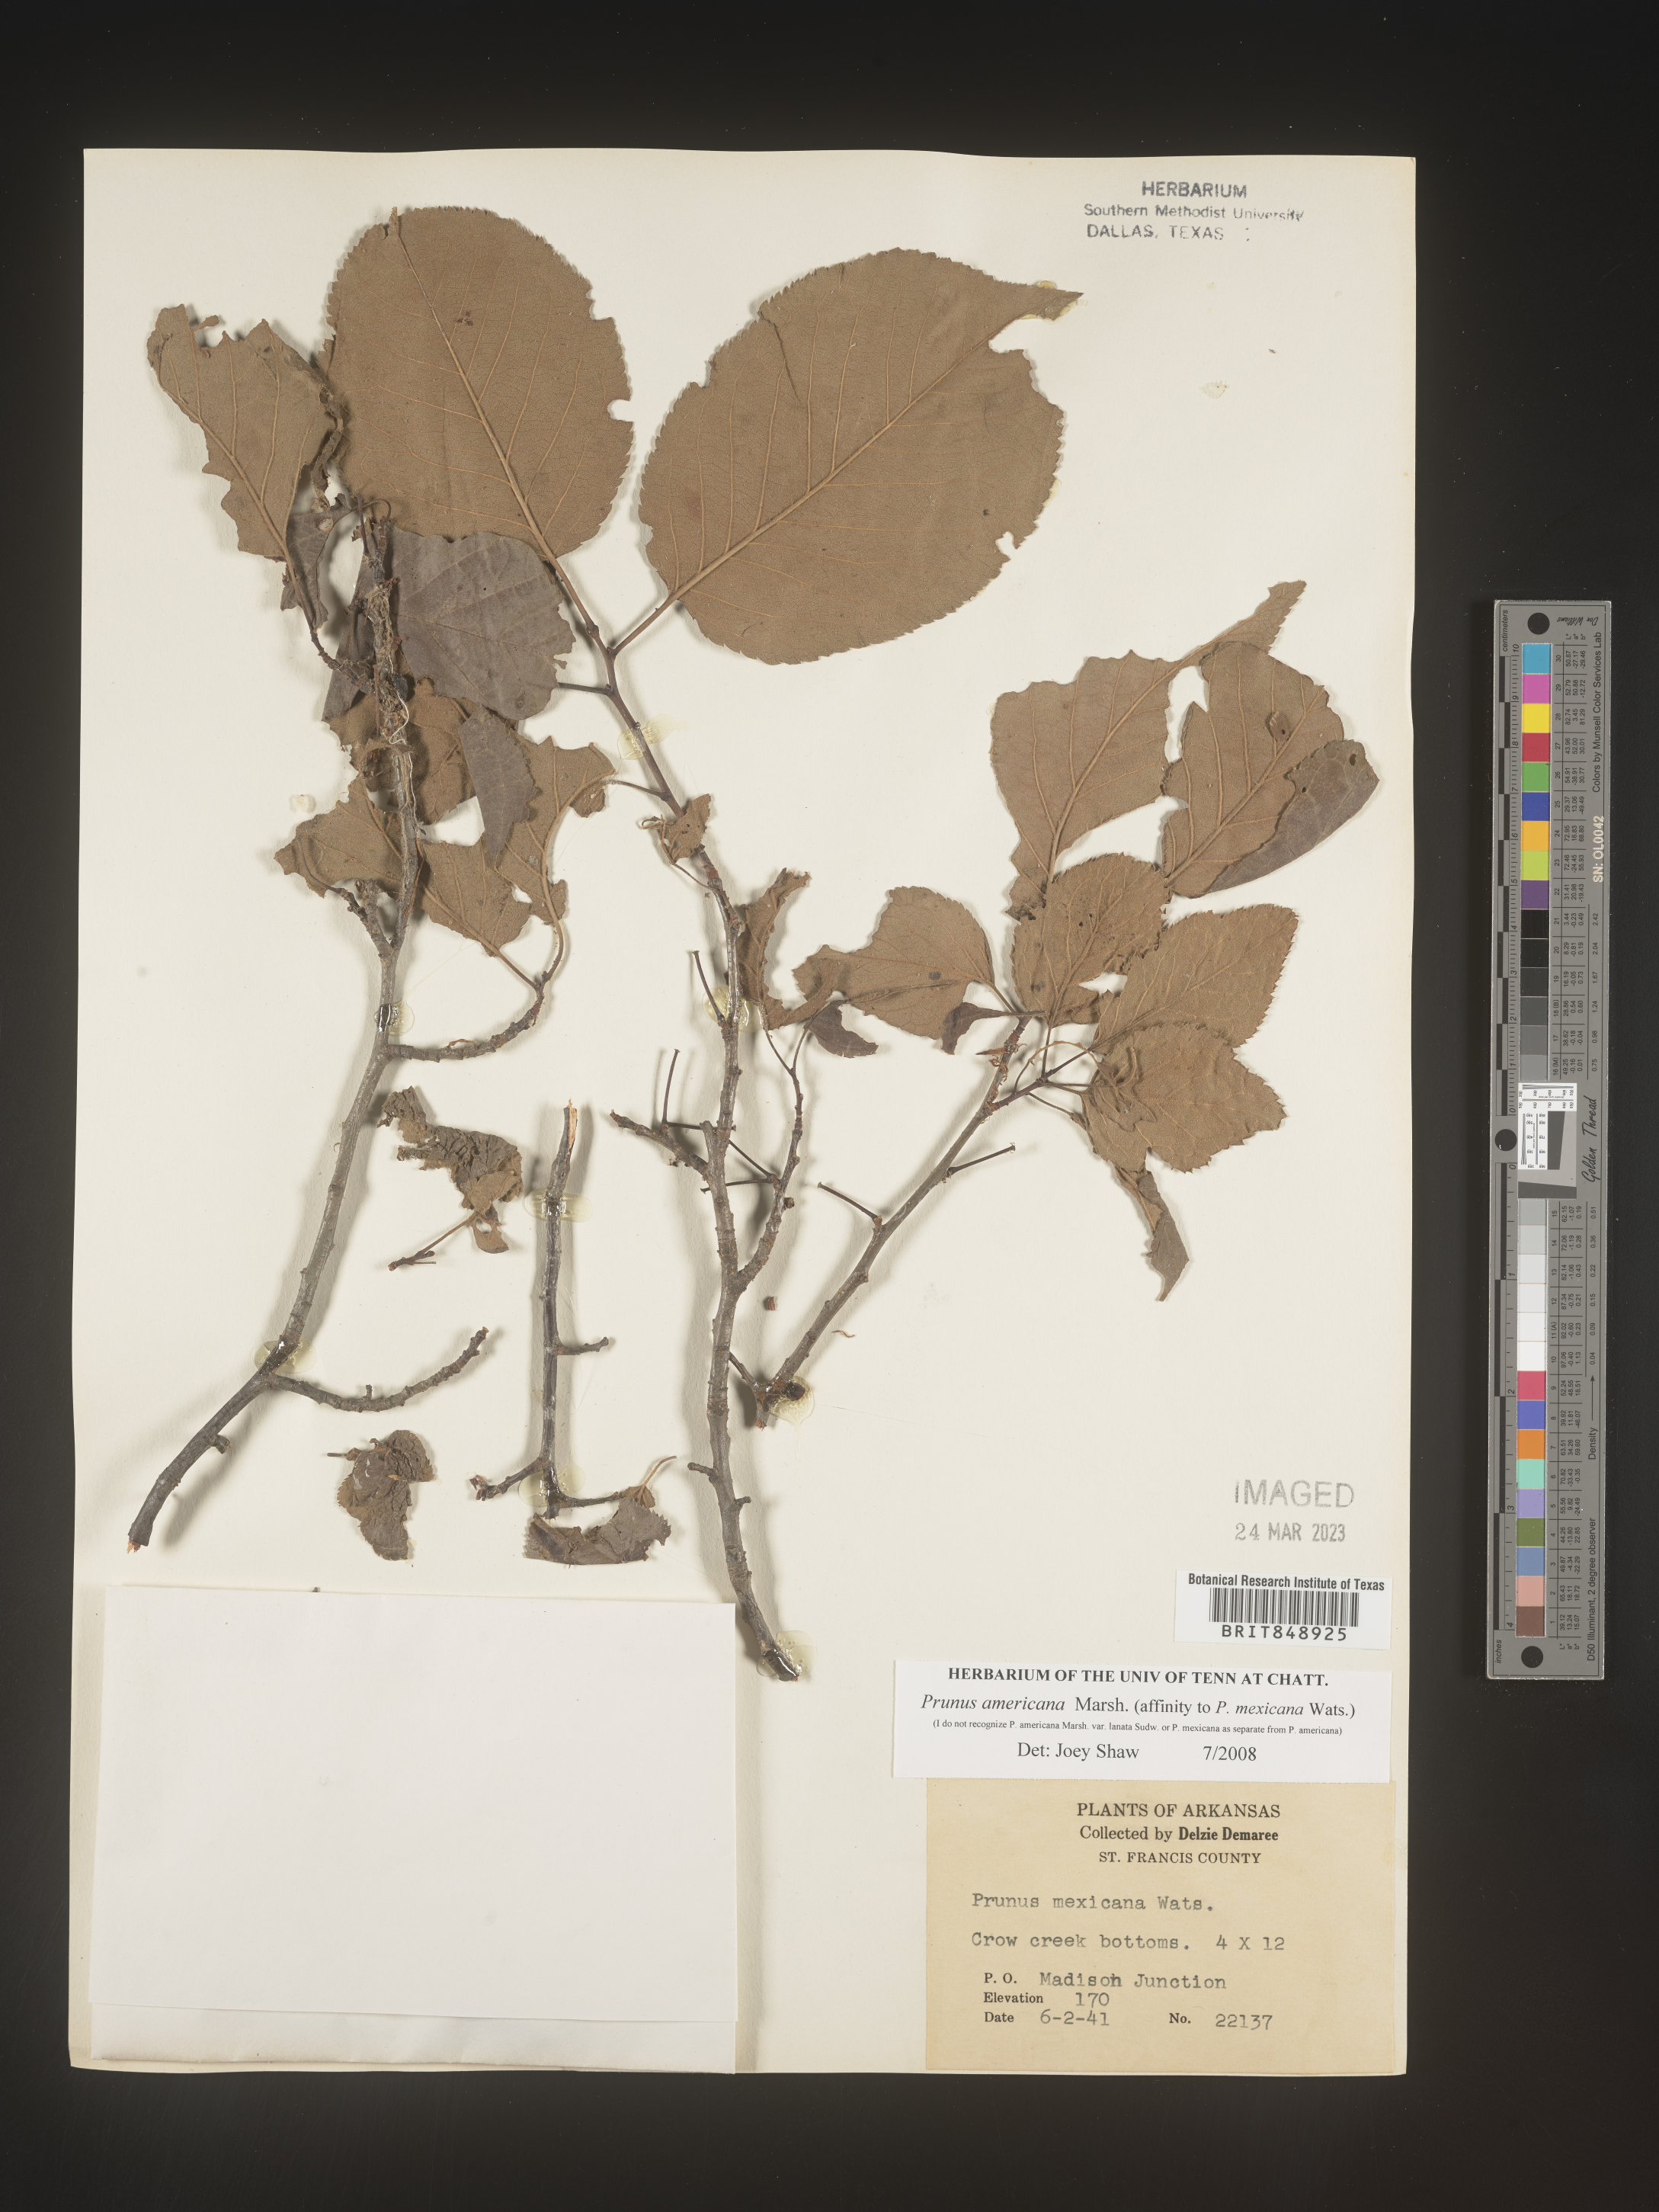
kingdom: Plantae
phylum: Tracheophyta
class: Magnoliopsida
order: Rosales
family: Rosaceae
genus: Prunus
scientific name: Prunus americana
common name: American plum
